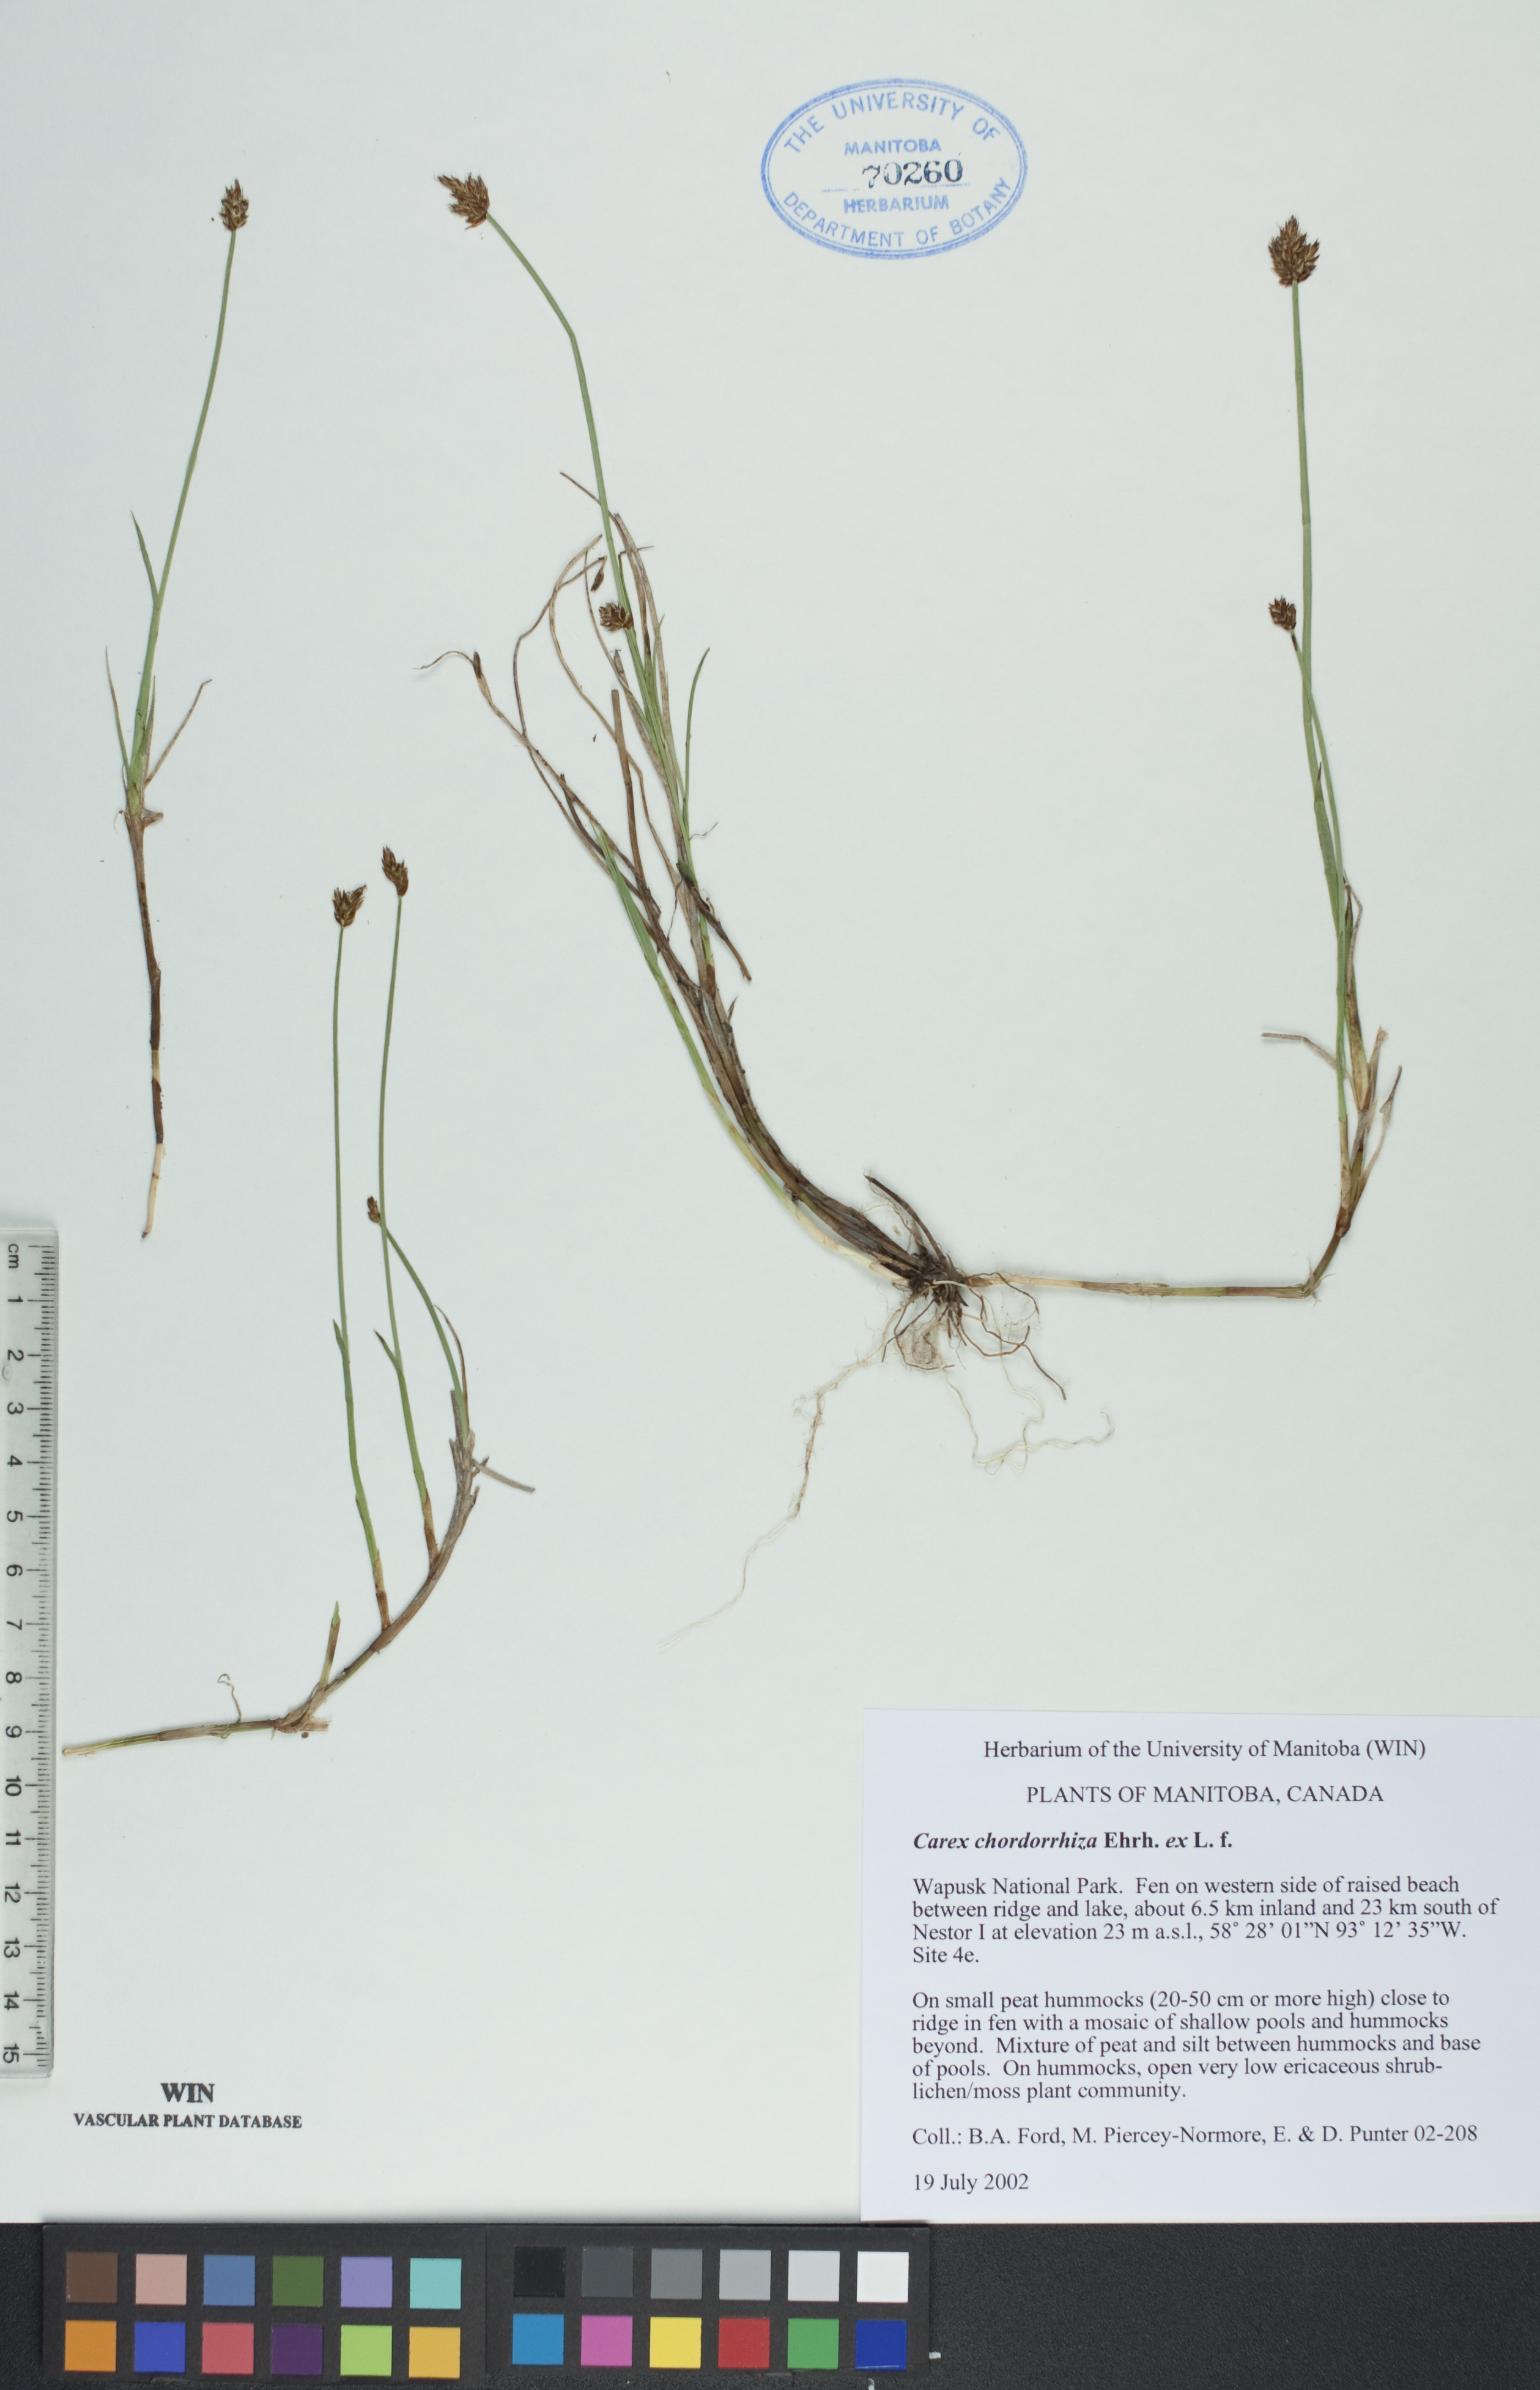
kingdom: Plantae
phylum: Tracheophyta
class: Liliopsida
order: Poales
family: Cyperaceae
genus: Carex
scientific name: Carex chordorrhiza
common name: String sedge
